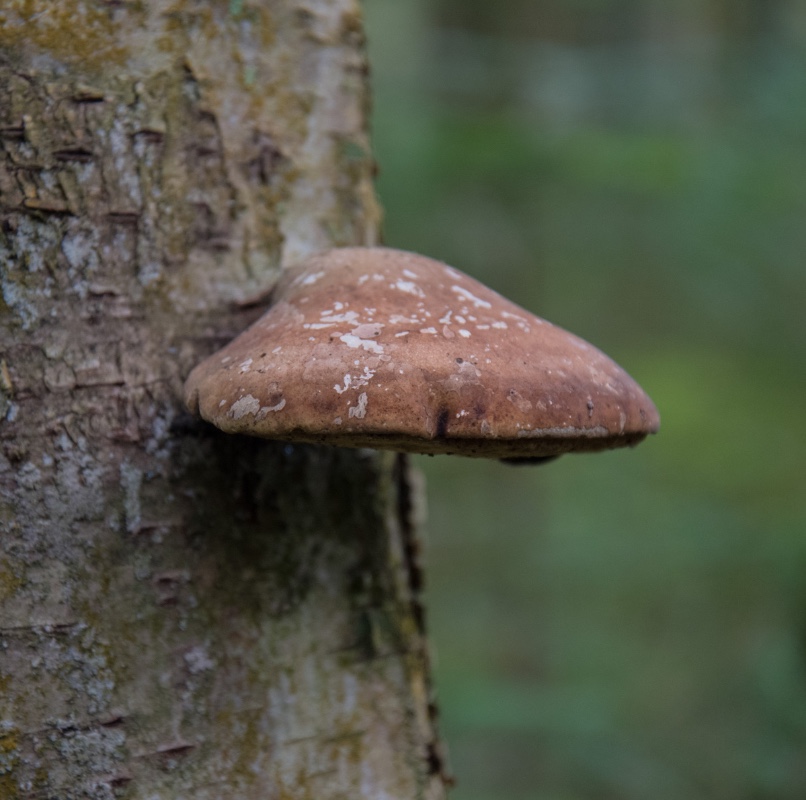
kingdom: Fungi
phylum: Basidiomycota
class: Agaricomycetes
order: Polyporales
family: Fomitopsidaceae
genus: Fomitopsis
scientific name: Fomitopsis betulina
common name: birkeporesvamp
